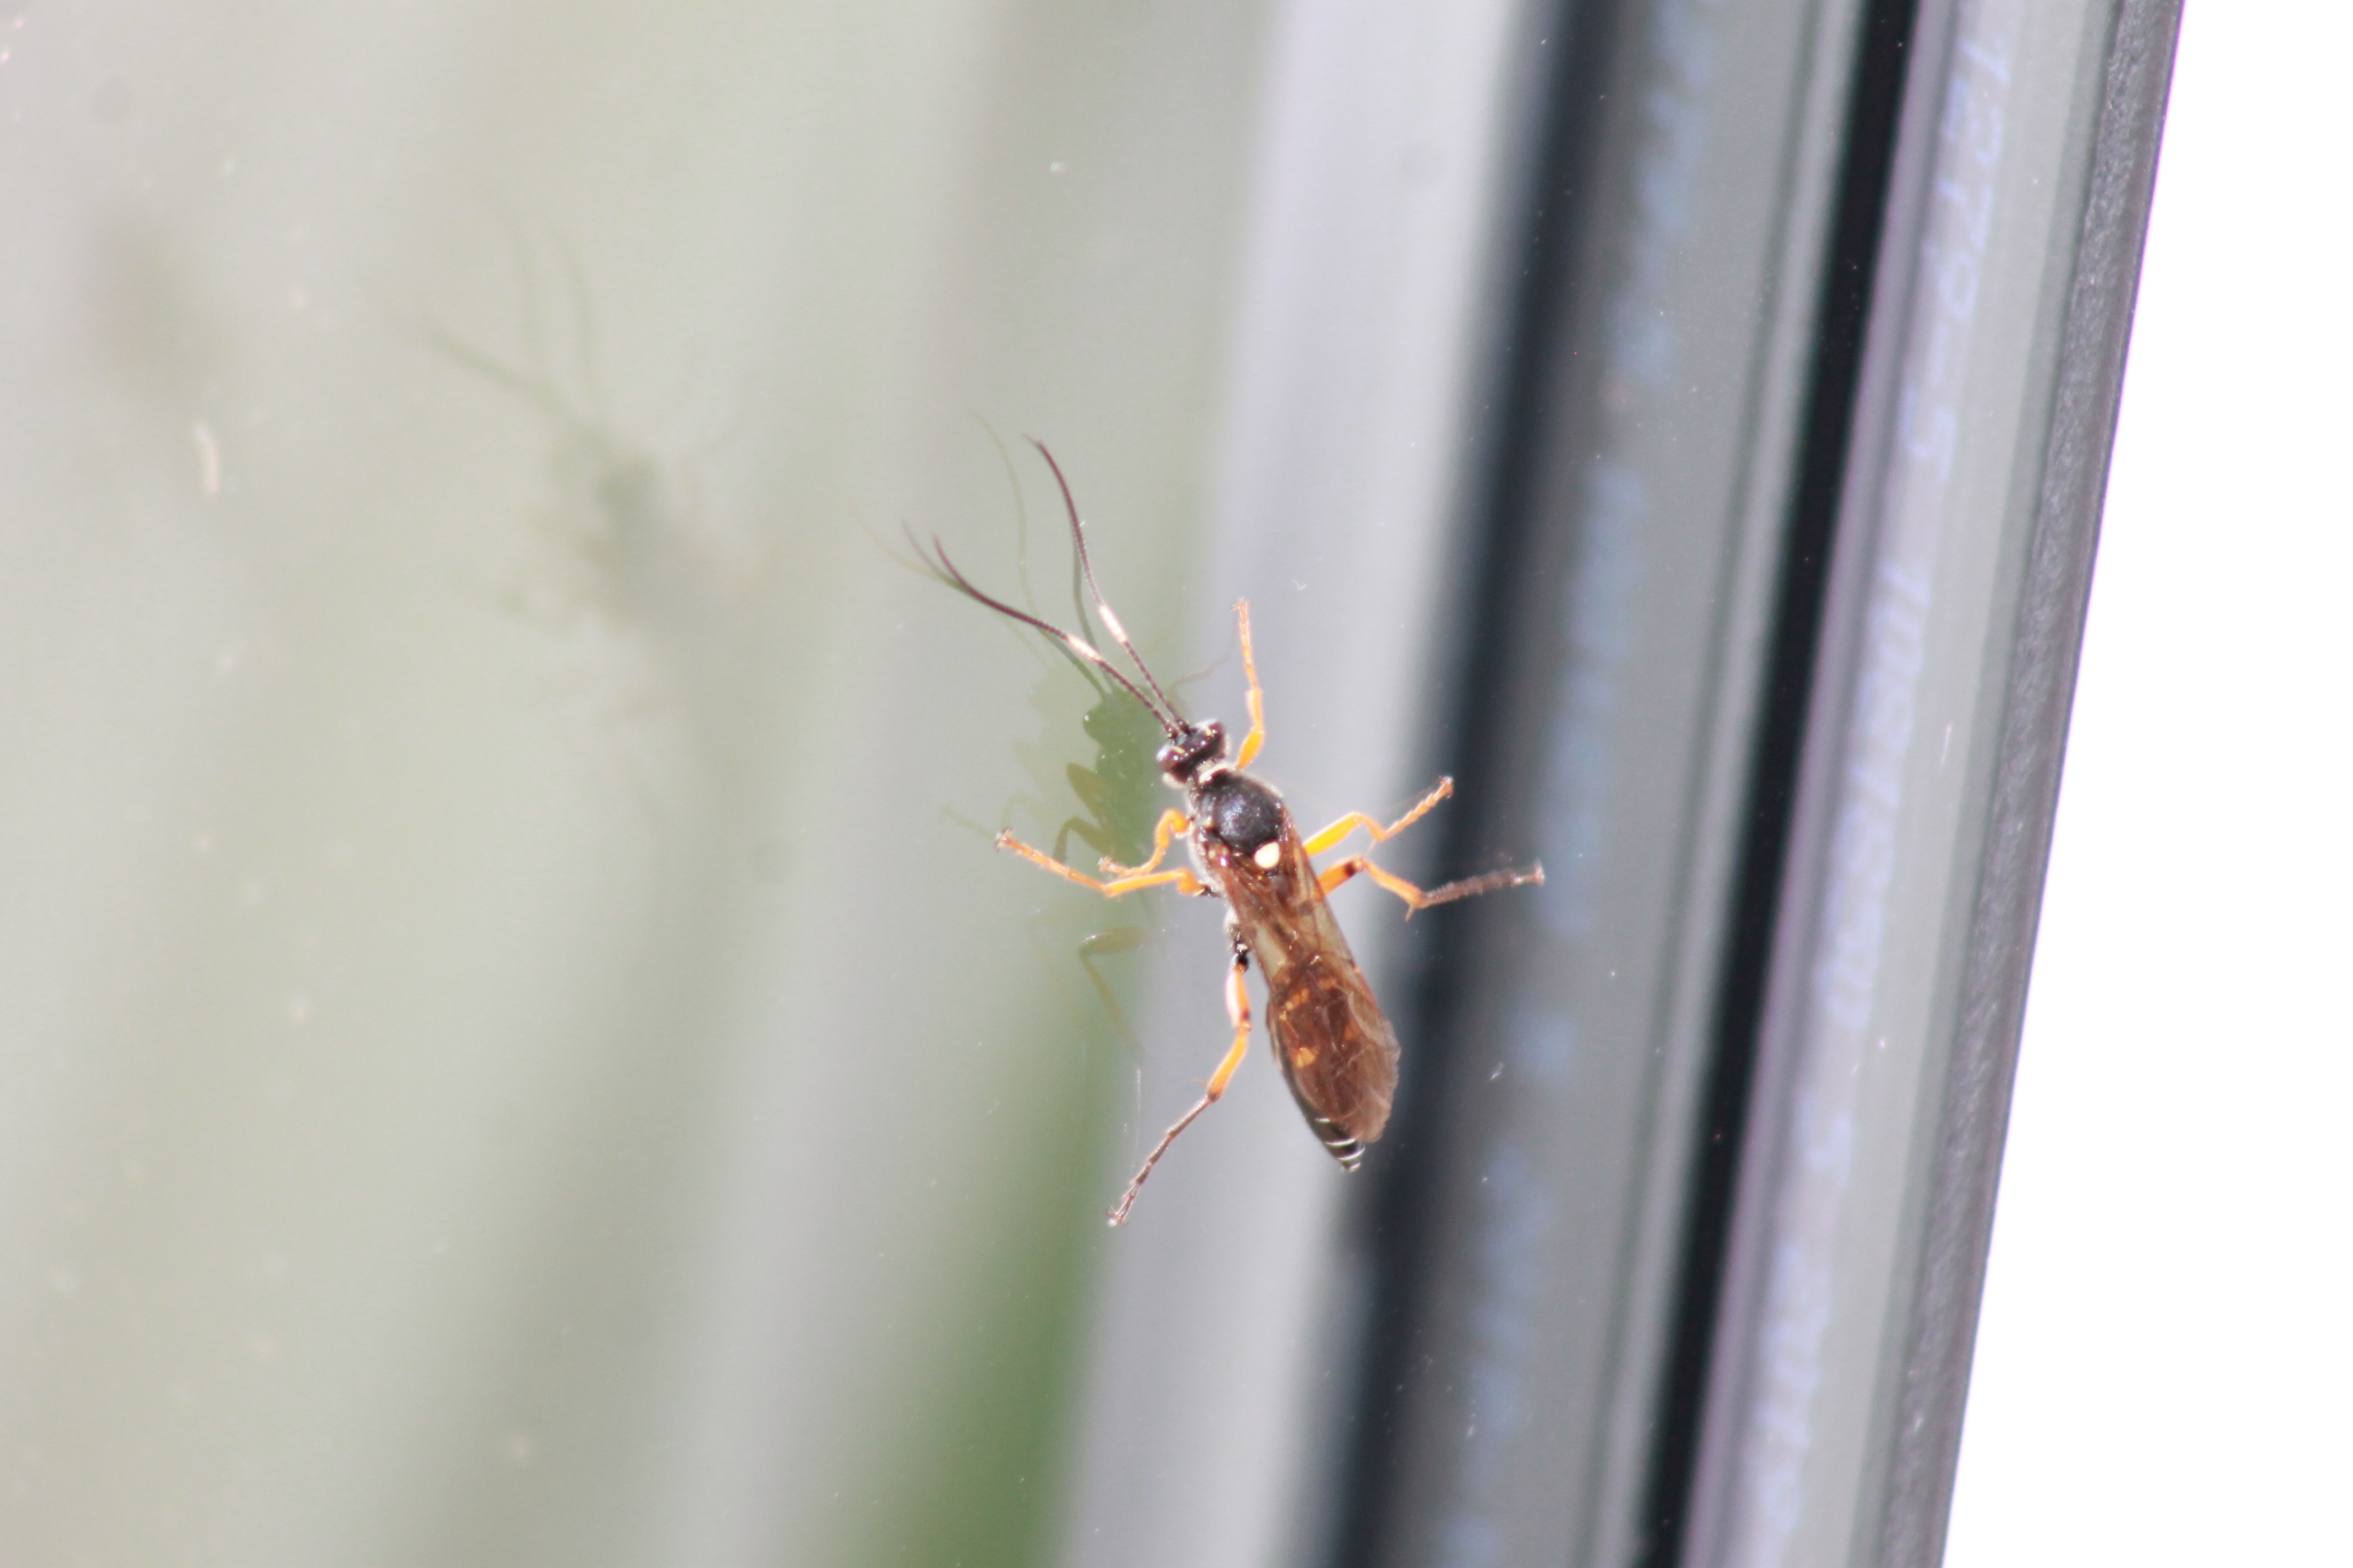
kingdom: Animalia
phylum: Arthropoda
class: Insecta
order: Hymenoptera
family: Ichneumonidae
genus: Diphyus
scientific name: Diphyus quadripunctorius
